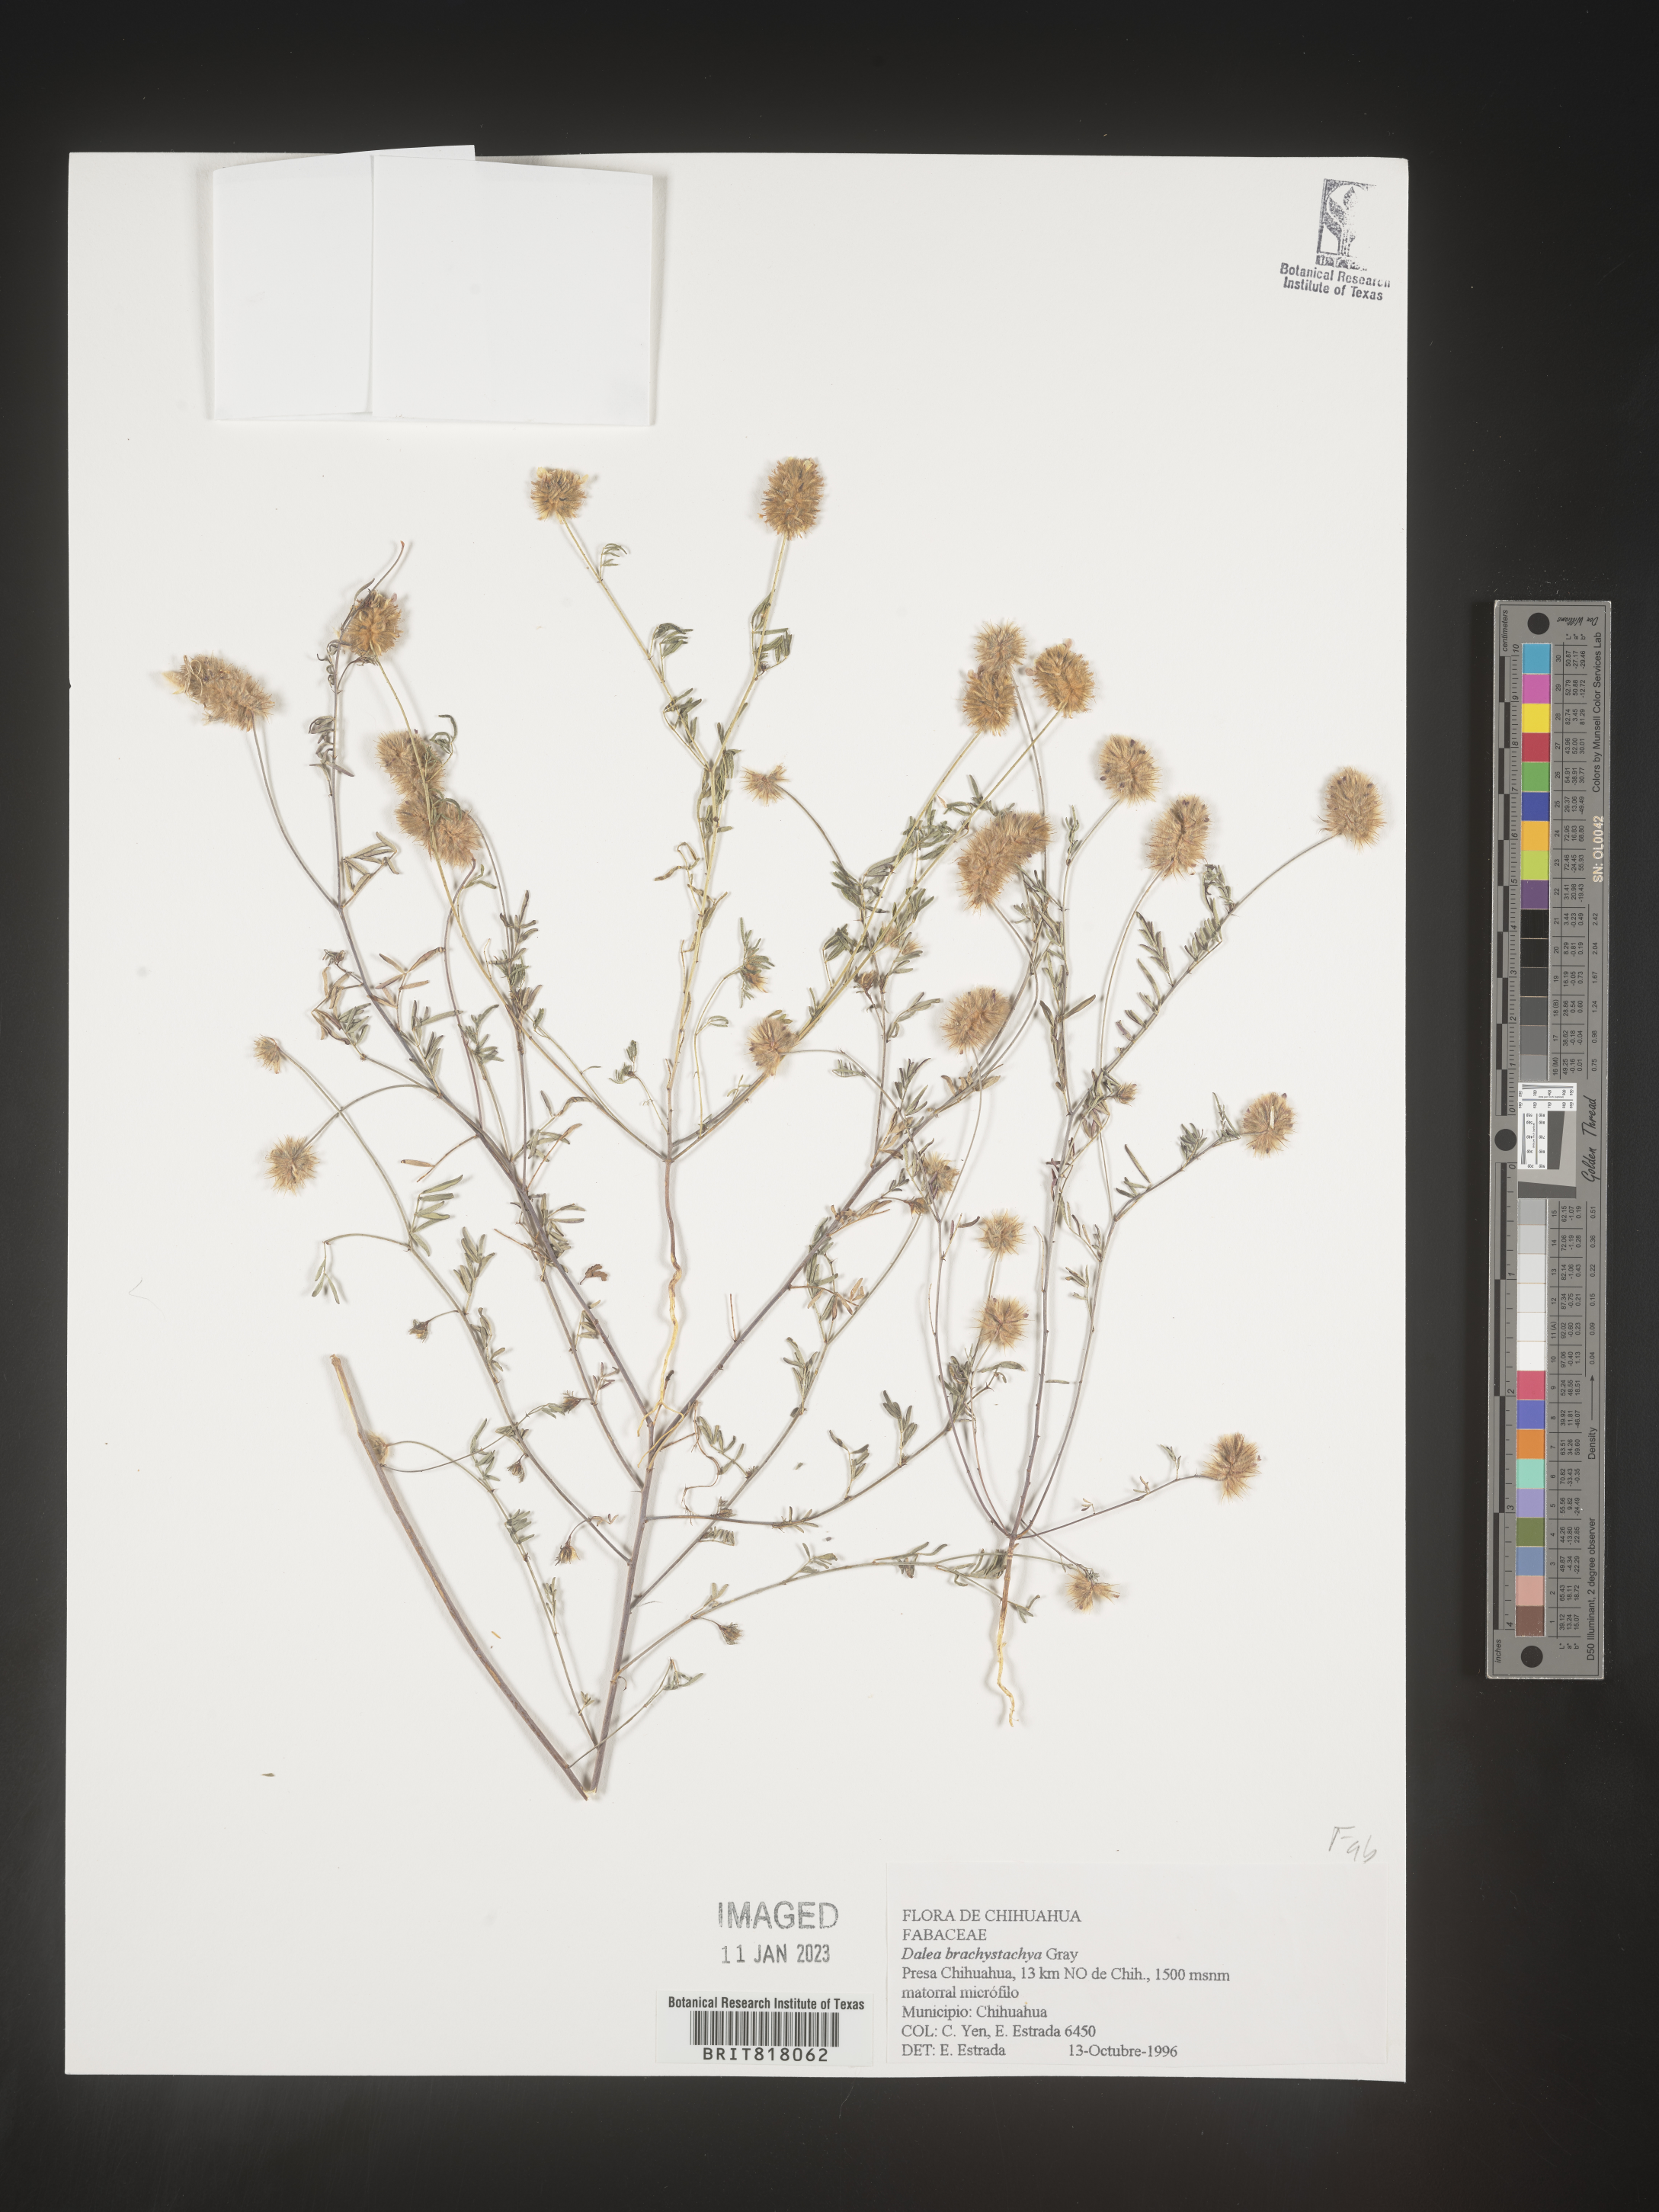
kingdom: Plantae
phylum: Tracheophyta
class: Magnoliopsida
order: Fabales
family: Fabaceae
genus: Dalea
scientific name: Dalea
